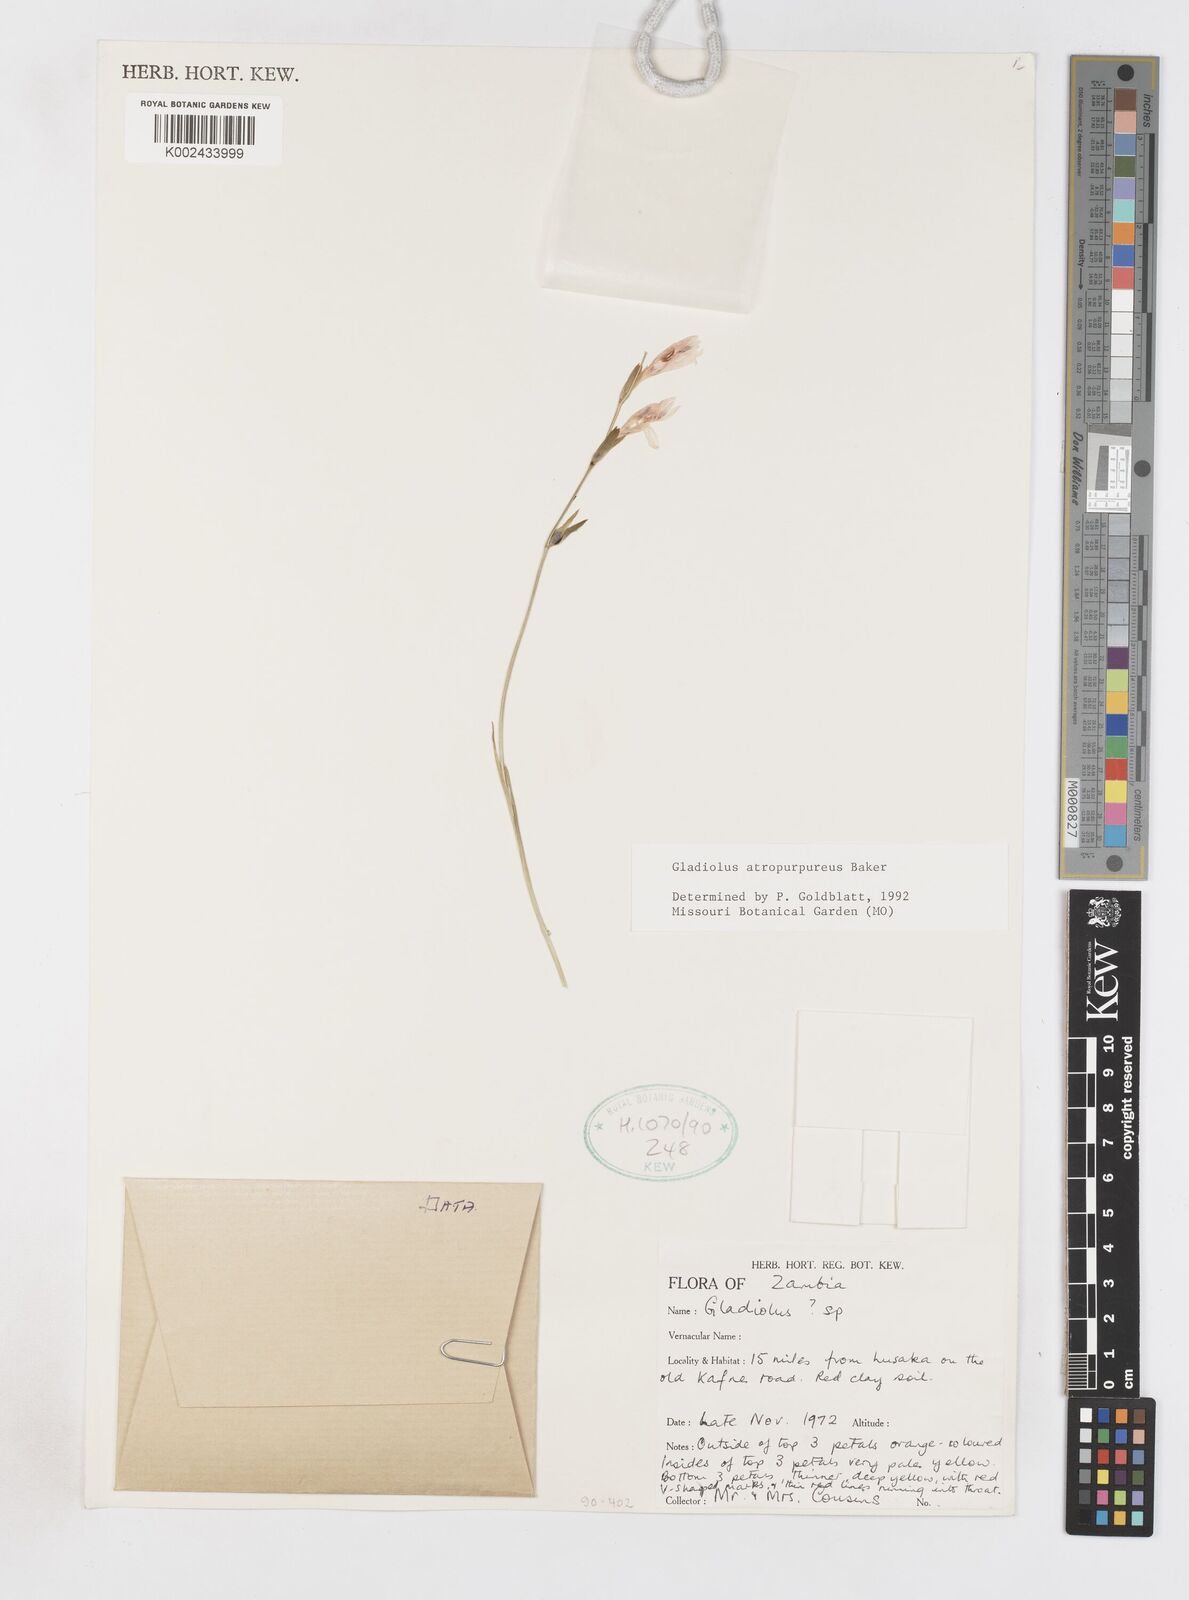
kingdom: Plantae
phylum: Tracheophyta
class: Liliopsida
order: Asparagales
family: Iridaceae
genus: Gladiolus
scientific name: Gladiolus atropurpureus
